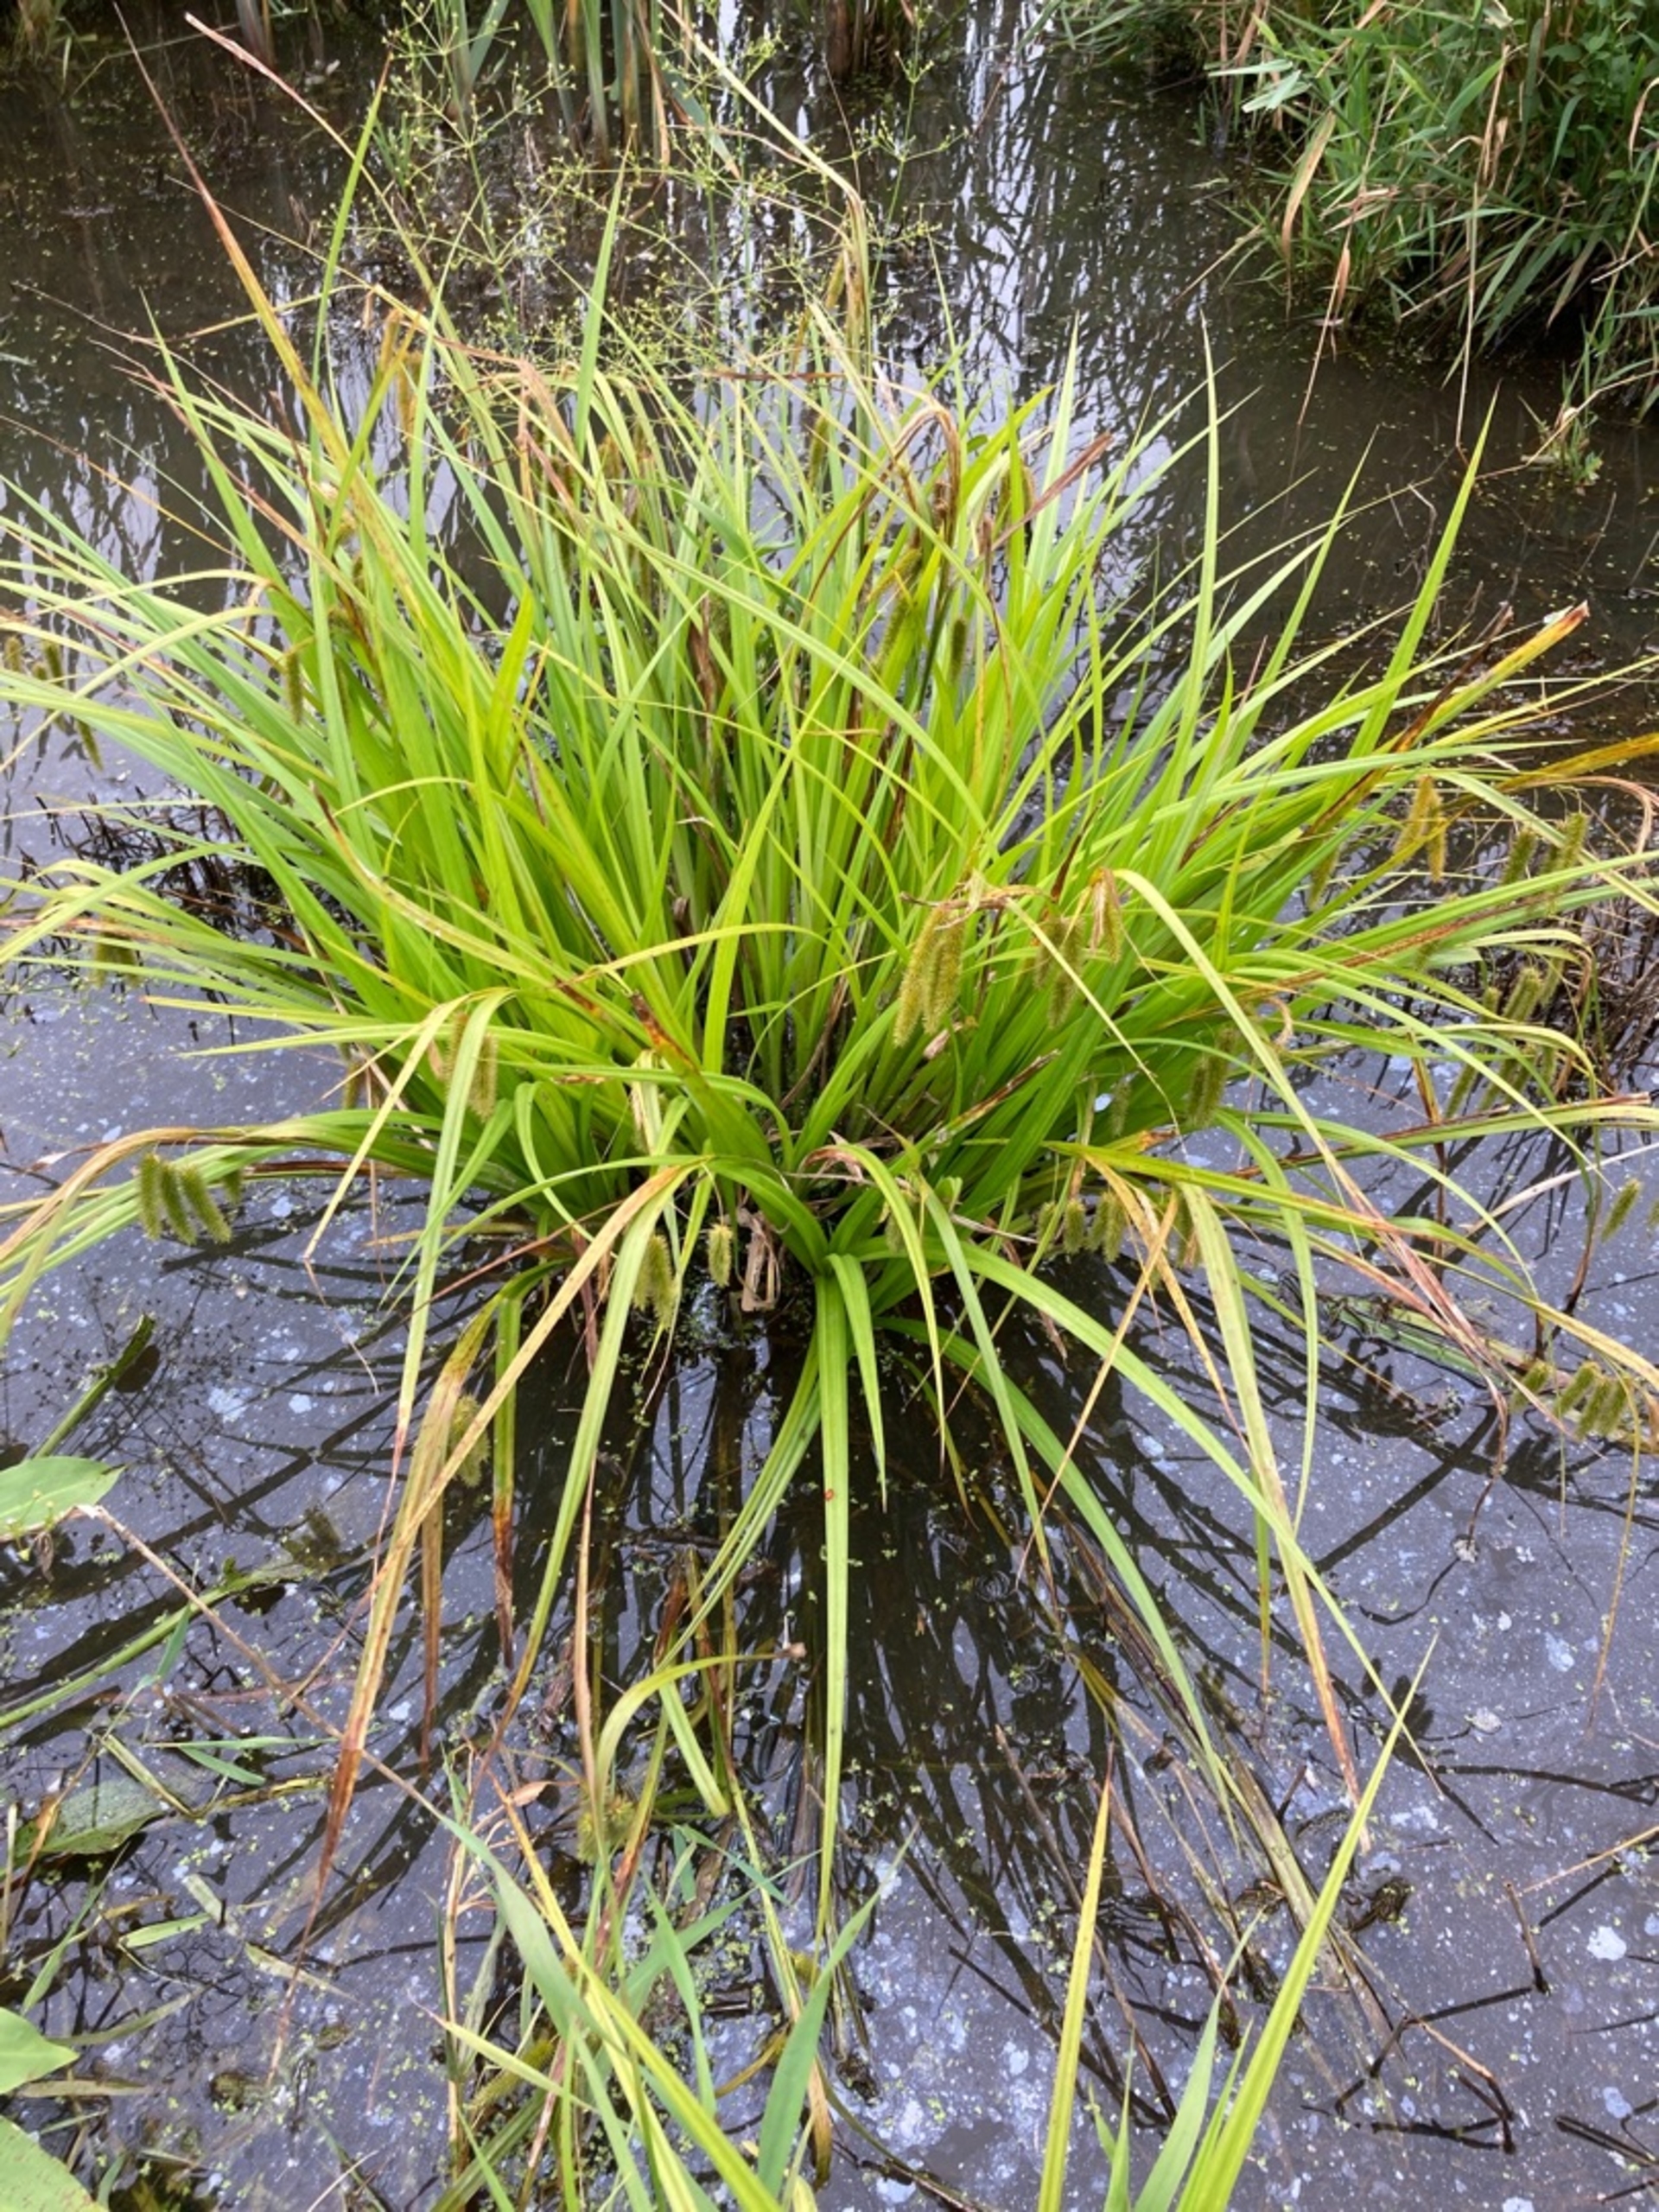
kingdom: Plantae
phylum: Tracheophyta
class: Liliopsida
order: Poales
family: Cyperaceae
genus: Carex
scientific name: Carex pseudocyperus
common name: Knippe-star
